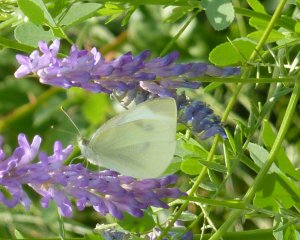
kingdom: Animalia
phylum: Arthropoda
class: Insecta
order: Lepidoptera
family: Pieridae
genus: Pieris
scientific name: Pieris rapae
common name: Cabbage White
